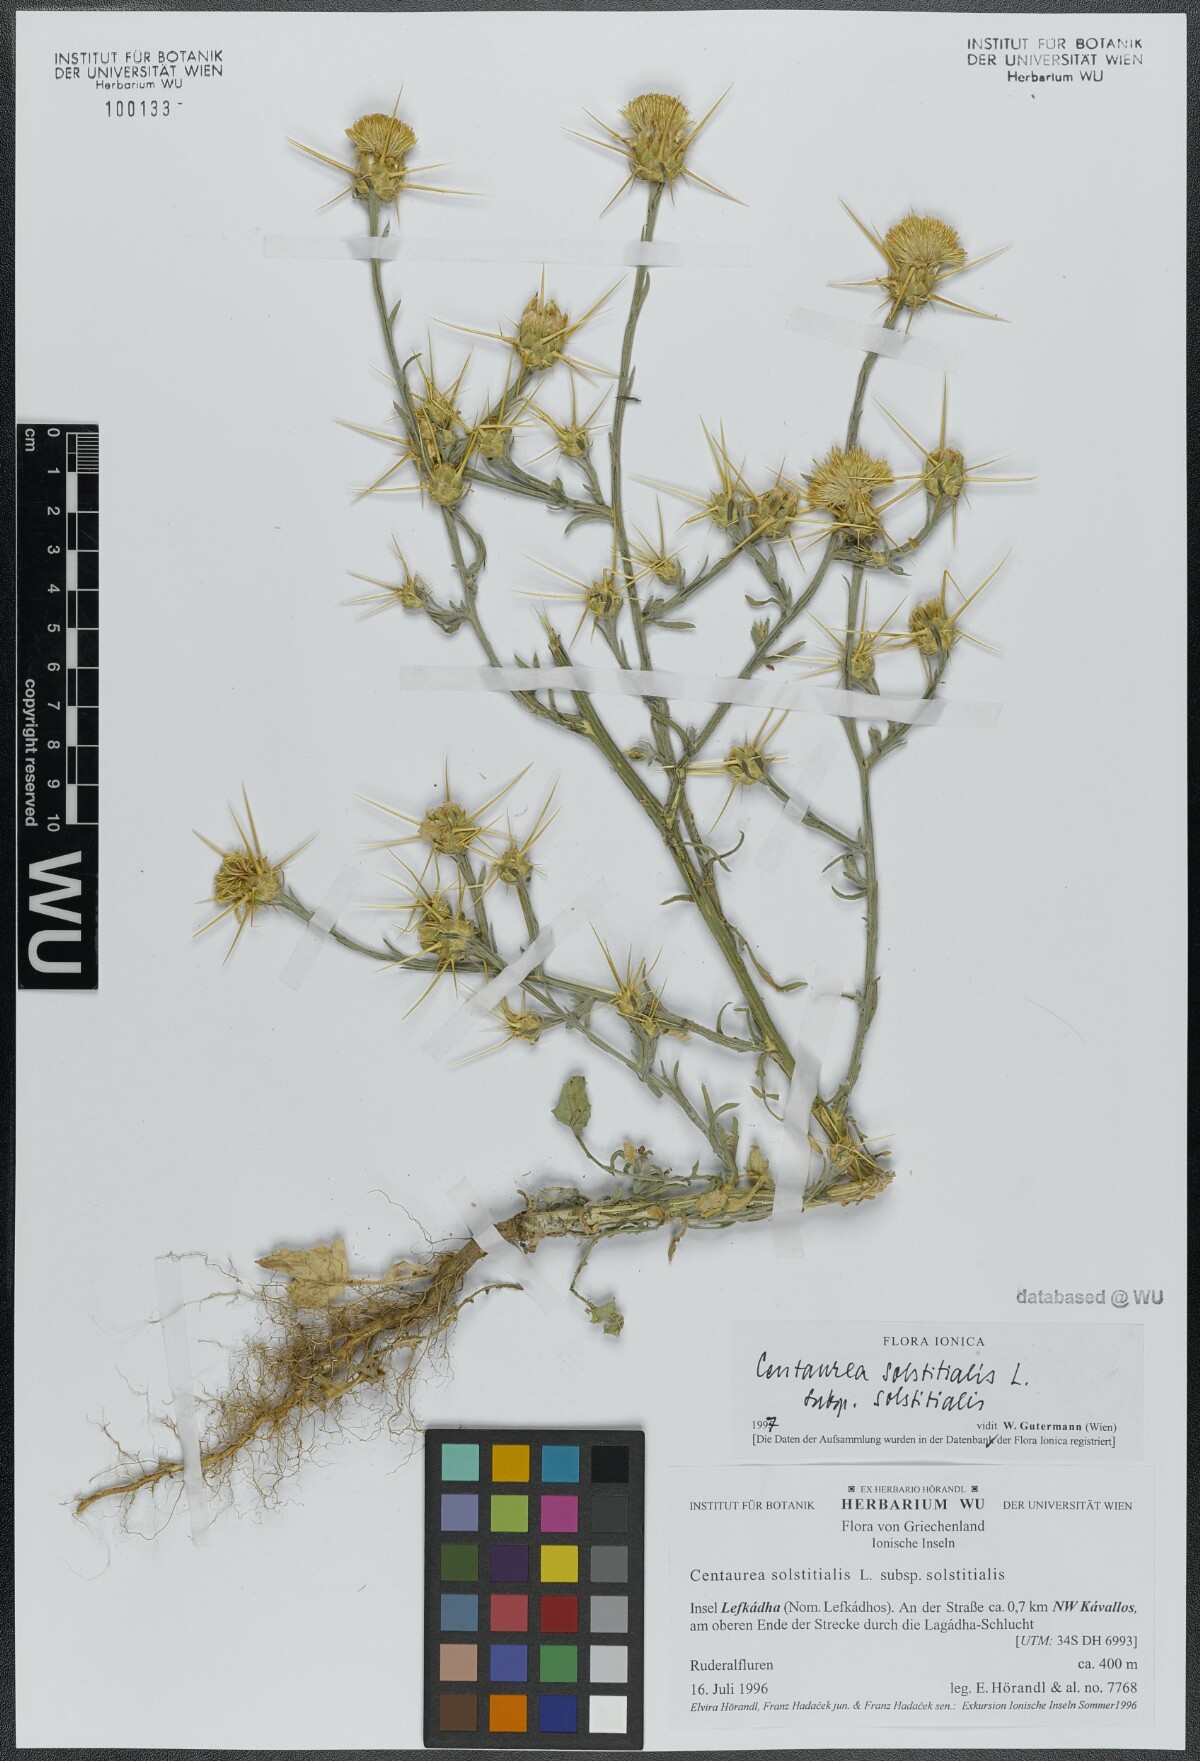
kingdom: Plantae
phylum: Tracheophyta
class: Magnoliopsida
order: Asterales
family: Asteraceae
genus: Centaurea
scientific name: Centaurea solstitialis
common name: Yellow star-thistle
